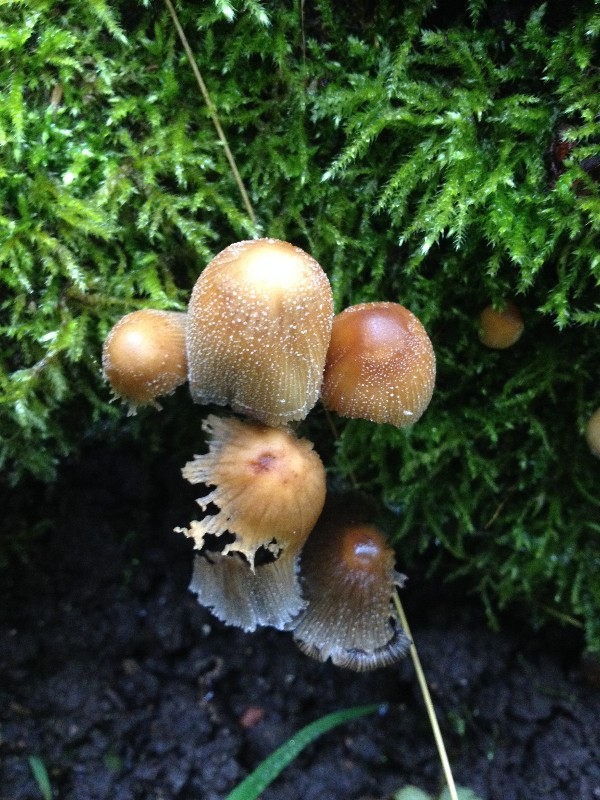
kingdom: Fungi
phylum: Basidiomycota
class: Agaricomycetes
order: Agaricales
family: Psathyrellaceae
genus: Coprinellus
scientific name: Coprinellus micaceus
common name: glimmer-blækhat
